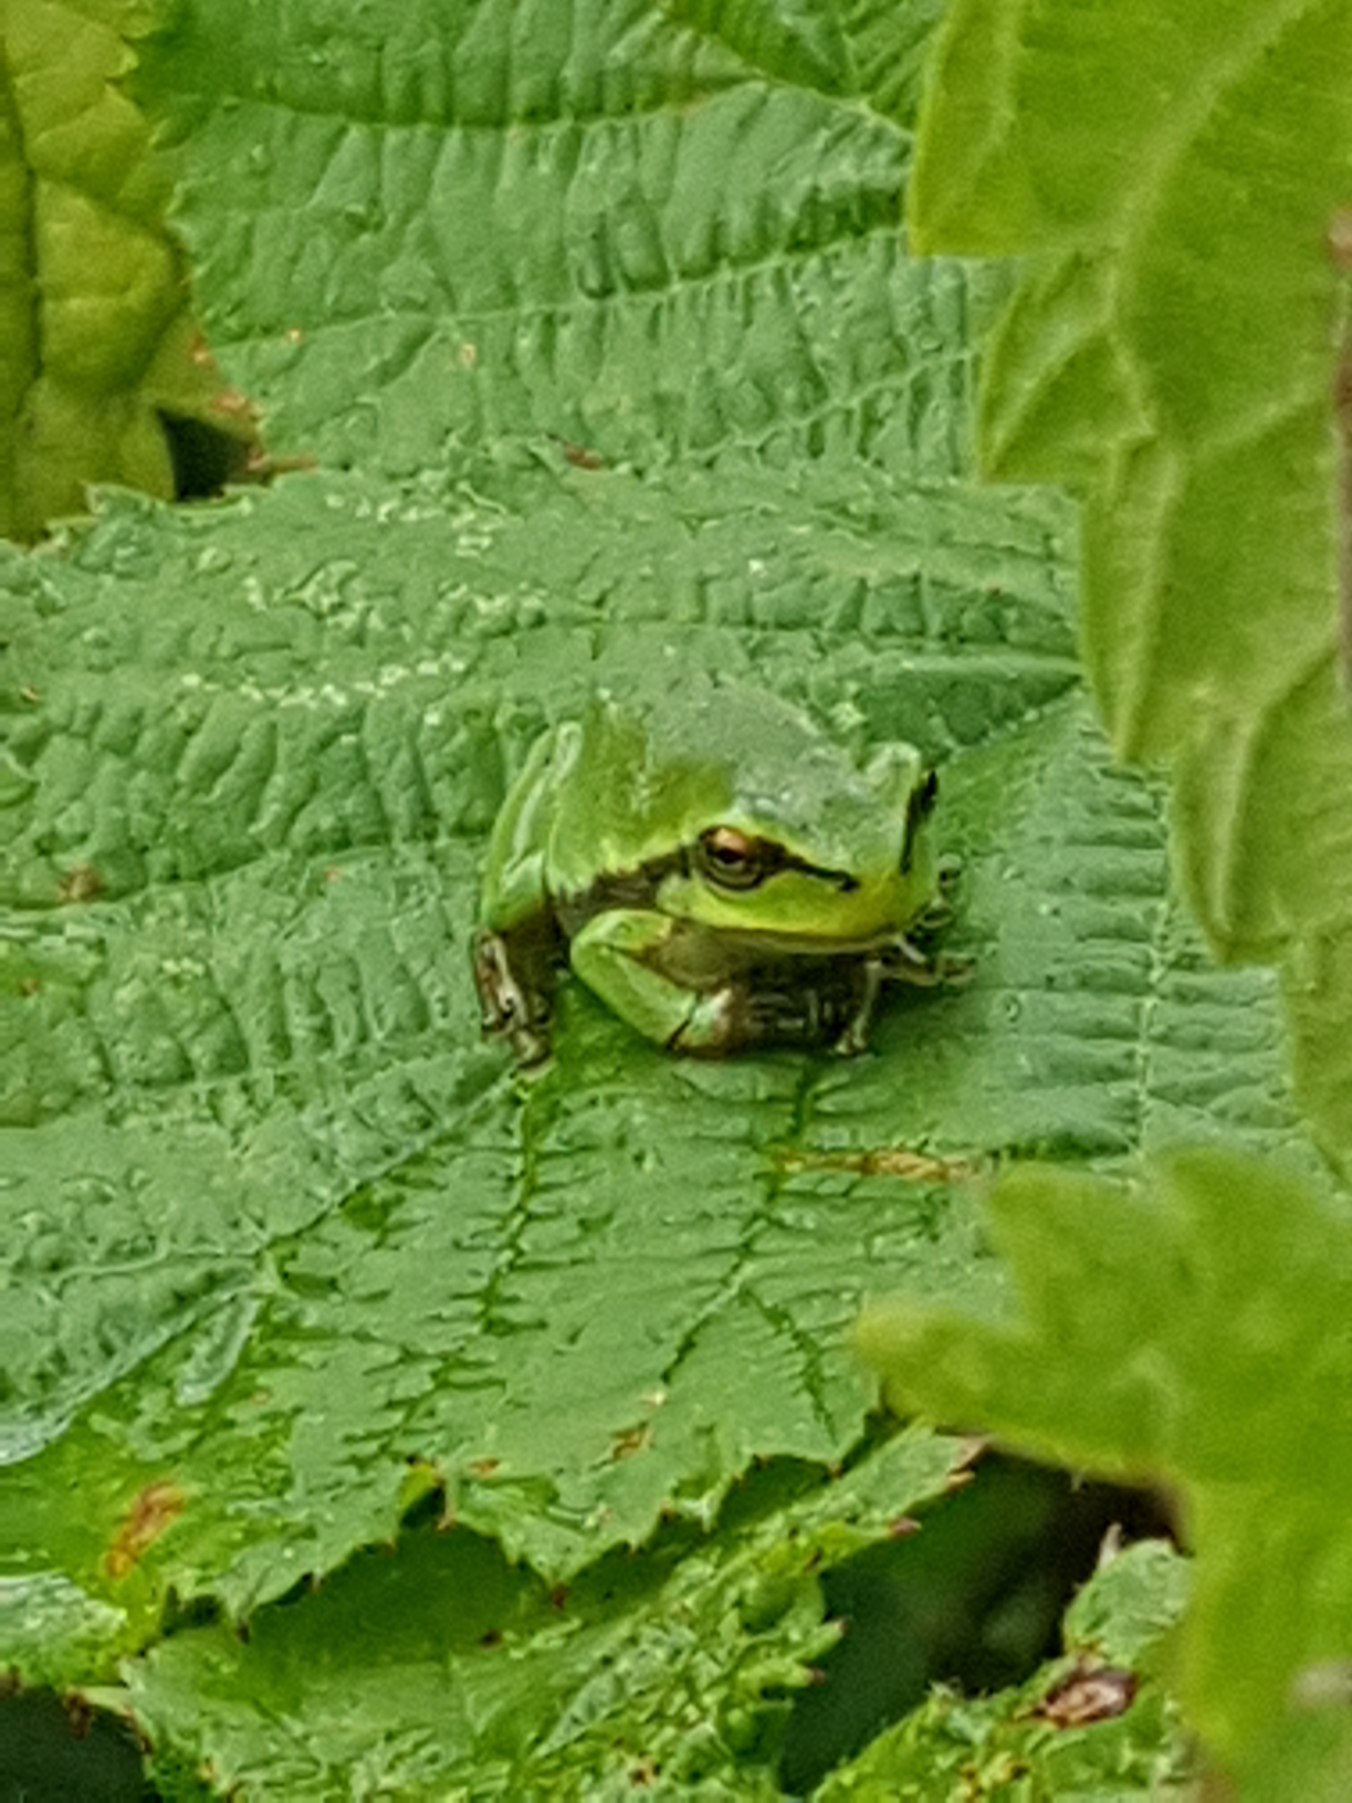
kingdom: Animalia
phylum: Chordata
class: Amphibia
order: Anura
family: Hylidae
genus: Hyla
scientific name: Hyla arborea
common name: Løvfrø
